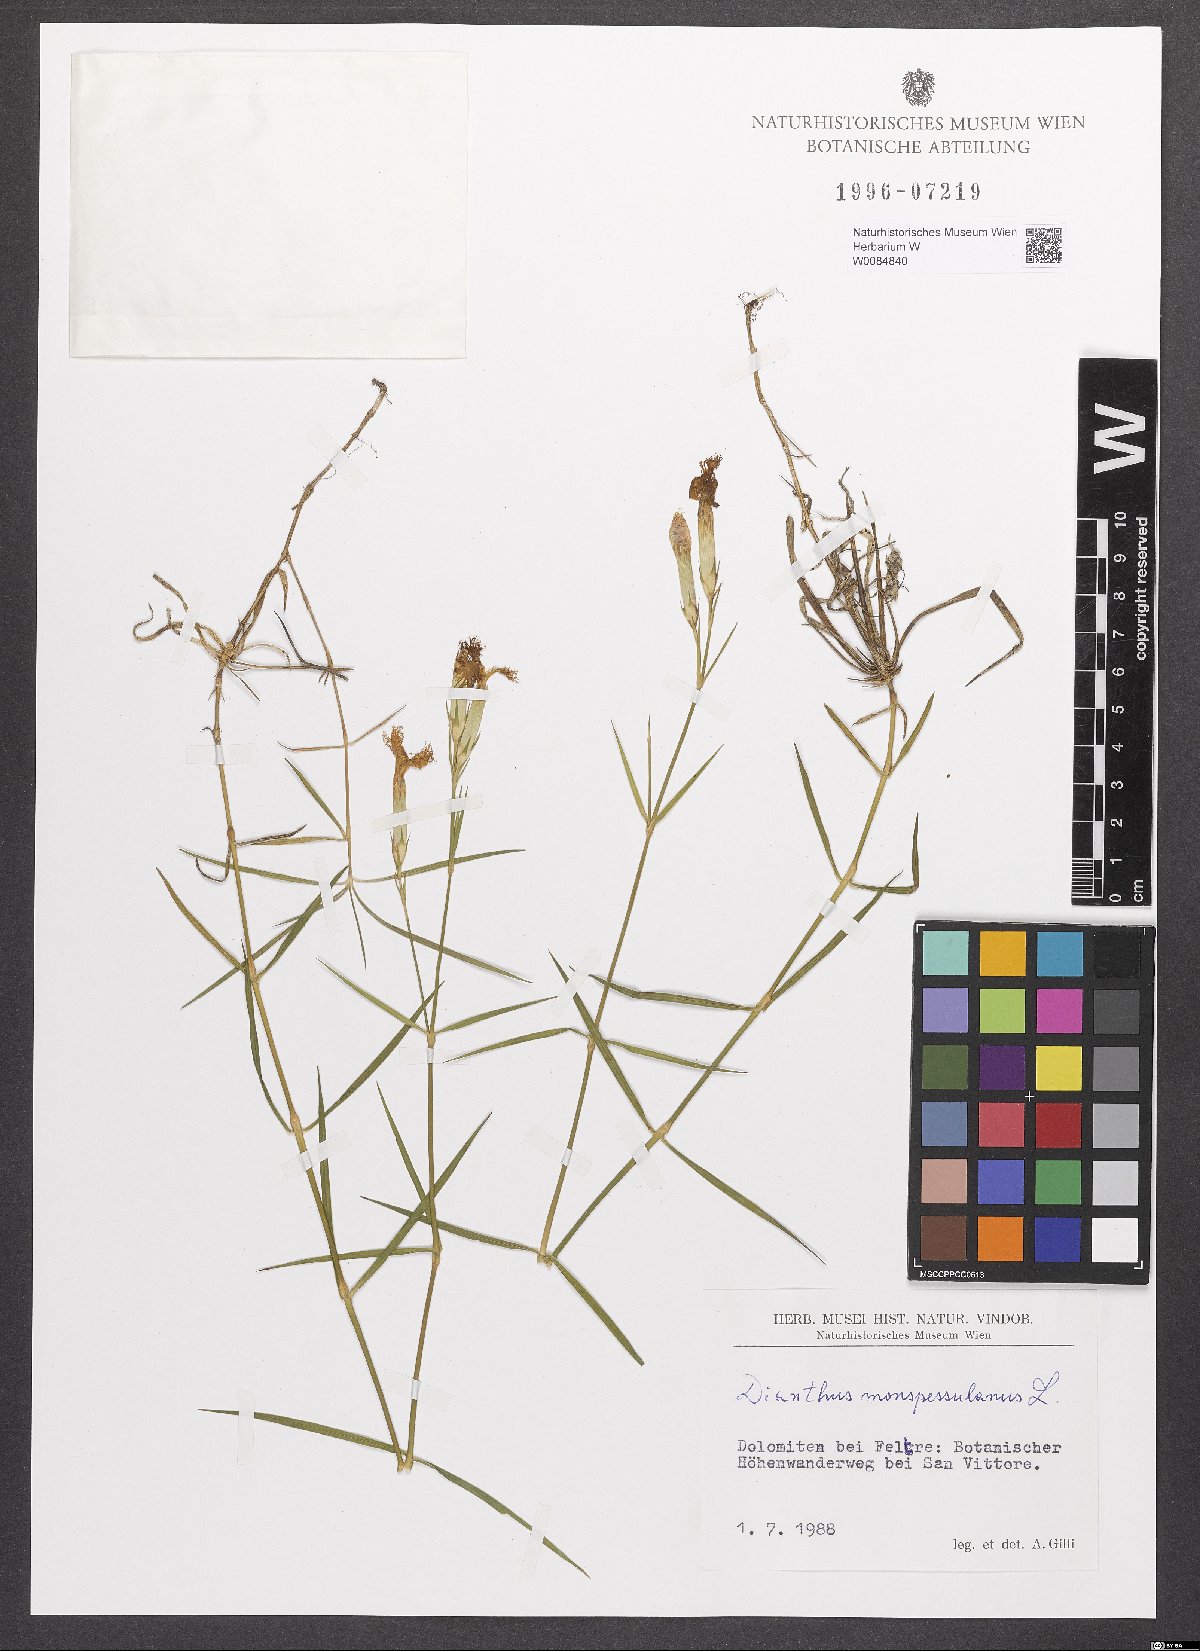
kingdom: Plantae
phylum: Tracheophyta
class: Magnoliopsida
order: Caryophyllales
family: Caryophyllaceae
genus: Dianthus
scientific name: Dianthus hyssopifolius
